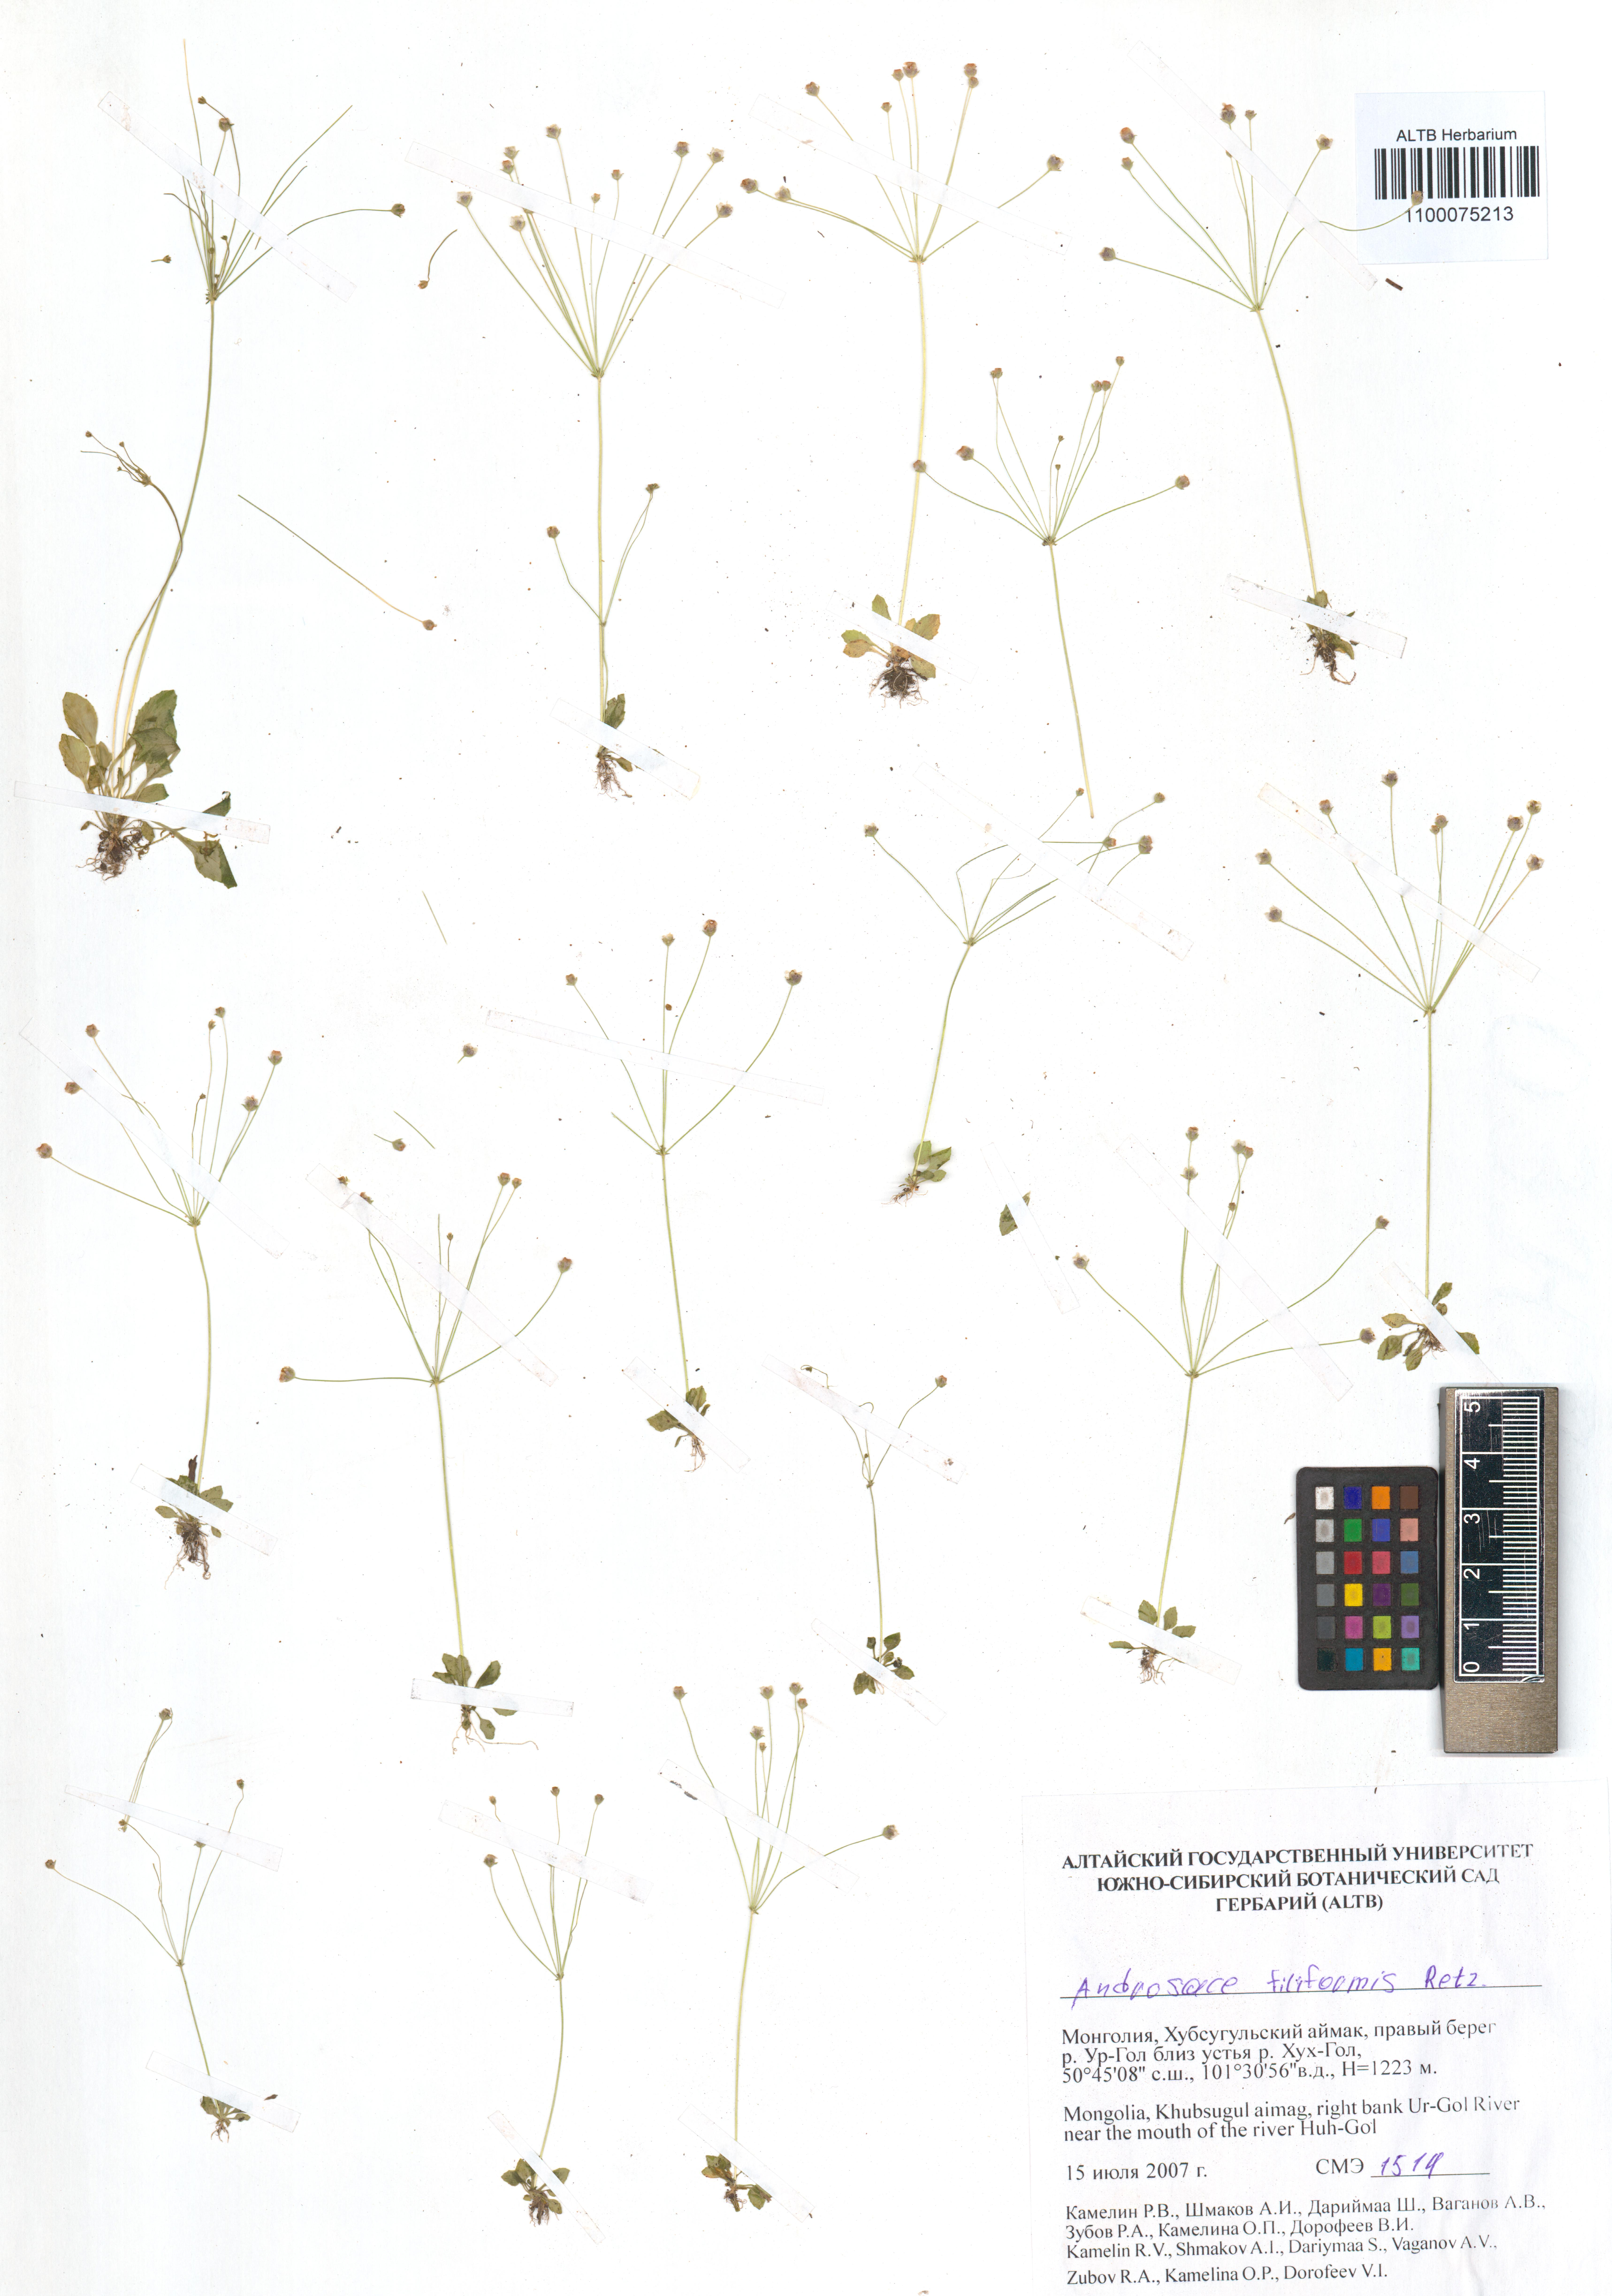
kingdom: Plantae
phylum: Tracheophyta
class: Magnoliopsida
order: Ericales
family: Primulaceae
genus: Androsace
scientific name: Androsace filiformis
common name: Filiform rock jasmine
